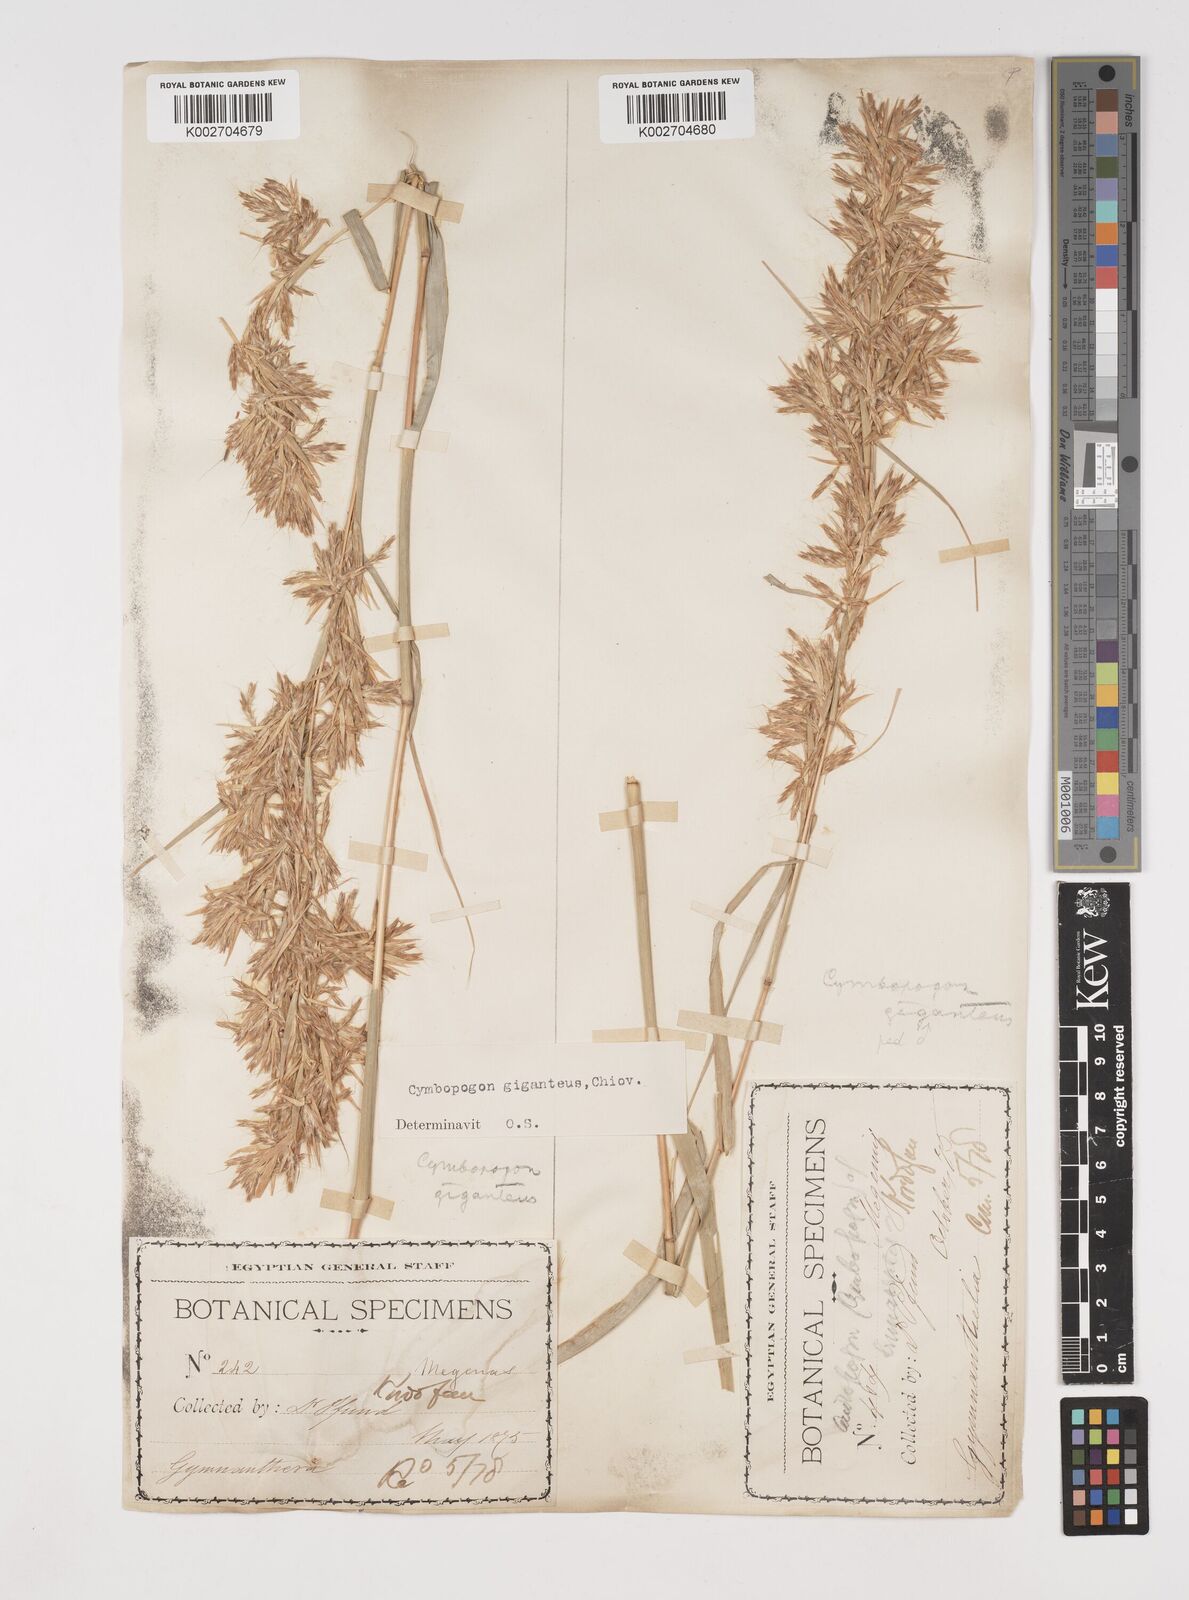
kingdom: Plantae
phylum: Tracheophyta
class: Liliopsida
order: Poales
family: Poaceae
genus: Cymbopogon
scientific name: Cymbopogon giganteus
